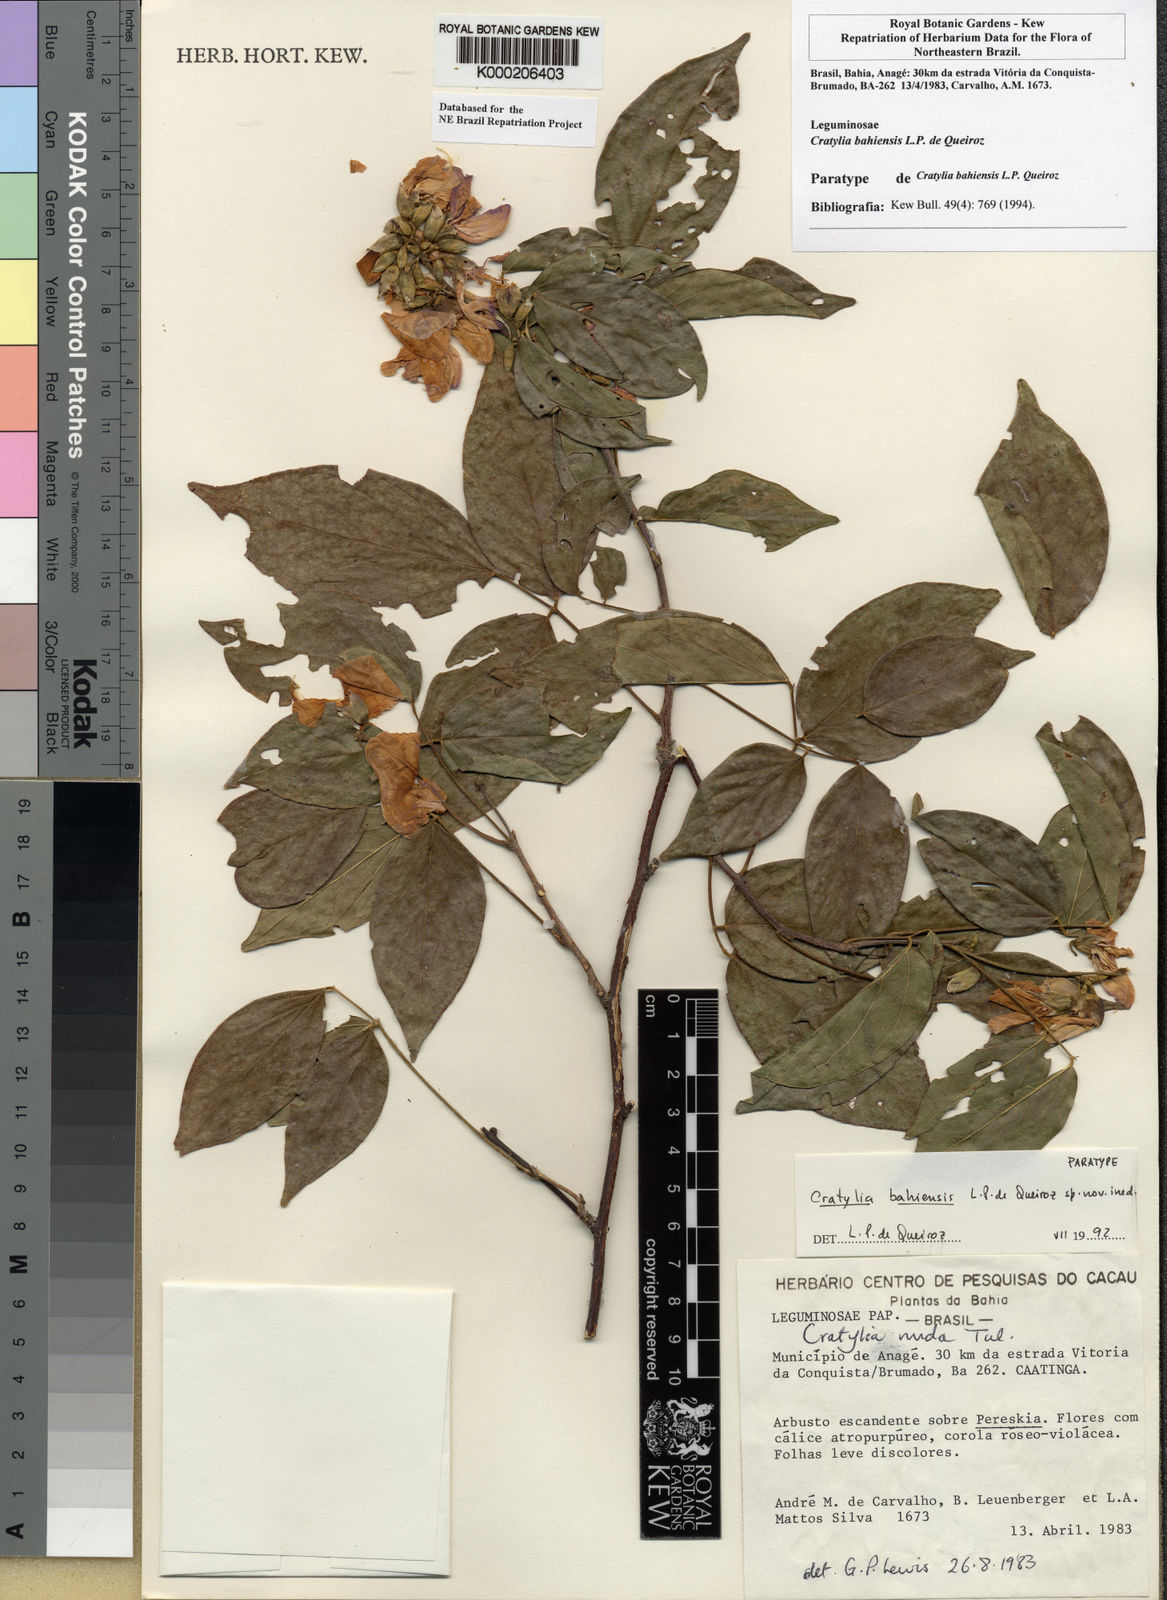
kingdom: Plantae
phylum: Tracheophyta
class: Magnoliopsida
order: Fabales
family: Fabaceae
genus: Cratylia
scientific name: Cratylia bahiensis
